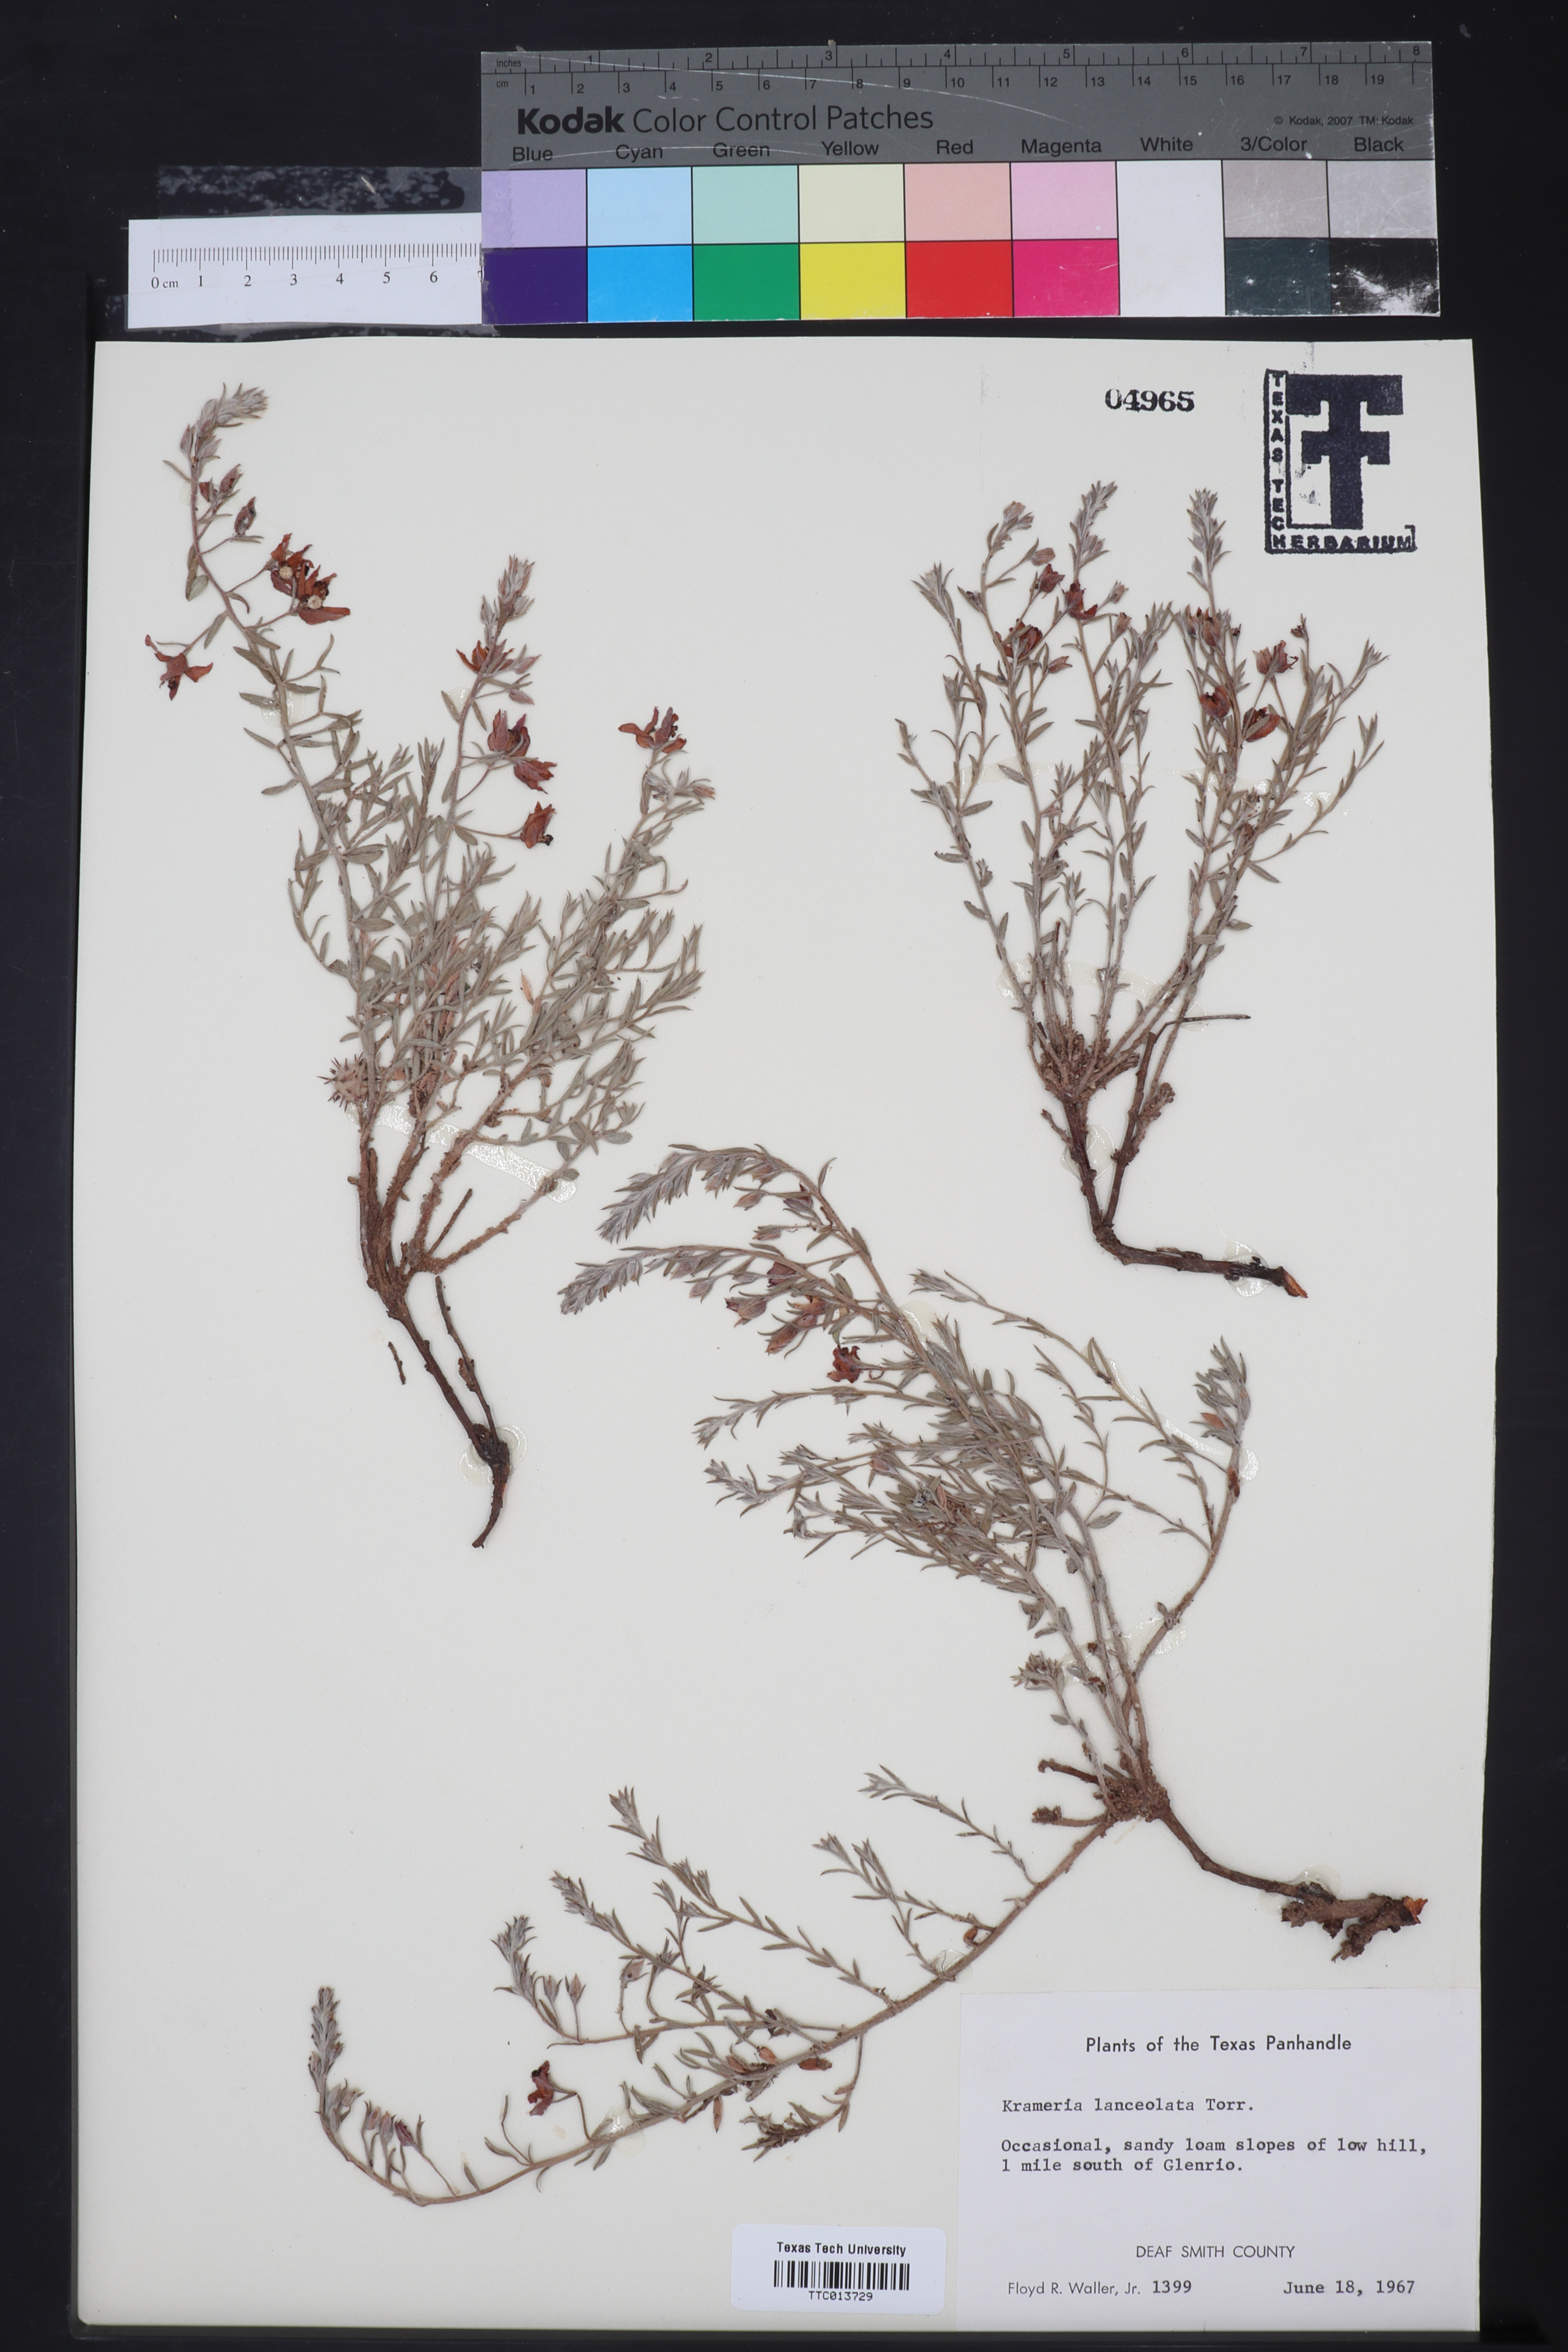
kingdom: Plantae
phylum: Tracheophyta
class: Magnoliopsida
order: Zygophyllales
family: Krameriaceae
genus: Krameria
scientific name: Krameria lanceolata
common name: Ratany
